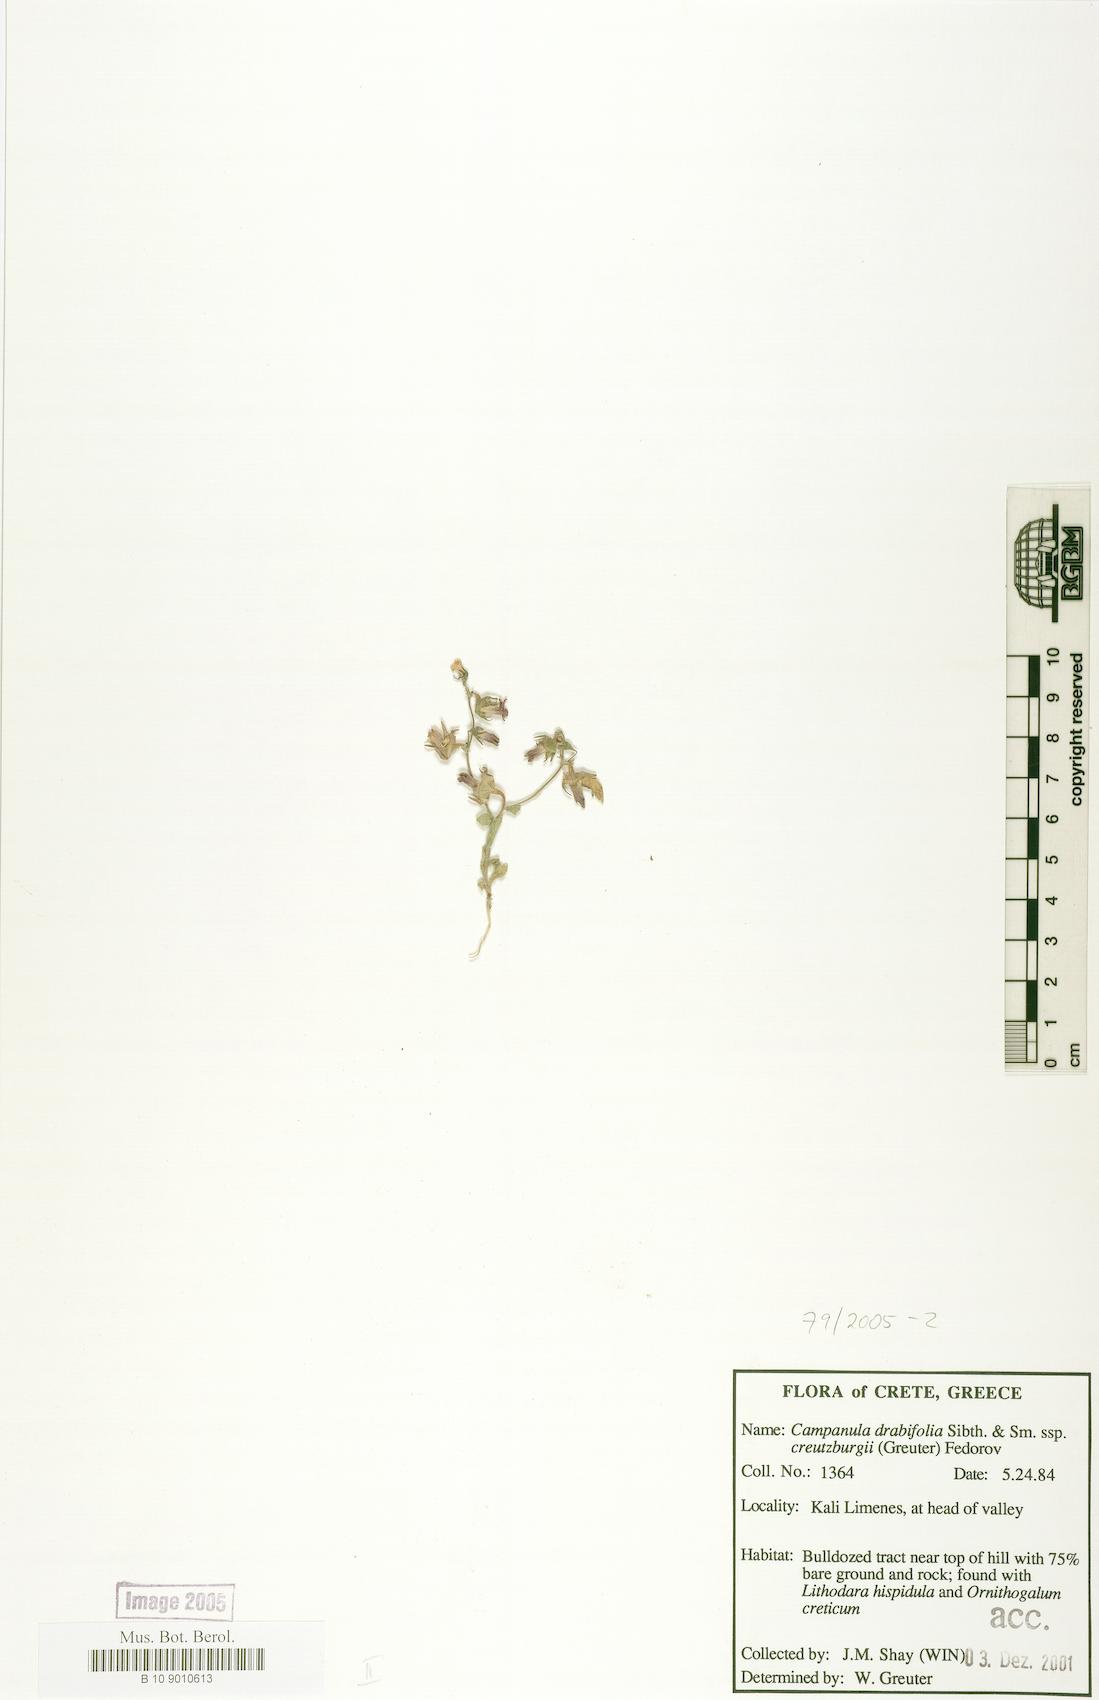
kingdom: Plantae
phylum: Tracheophyta
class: Magnoliopsida
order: Asterales
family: Campanulaceae
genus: Campanula
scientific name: Campanula creutzburgii
